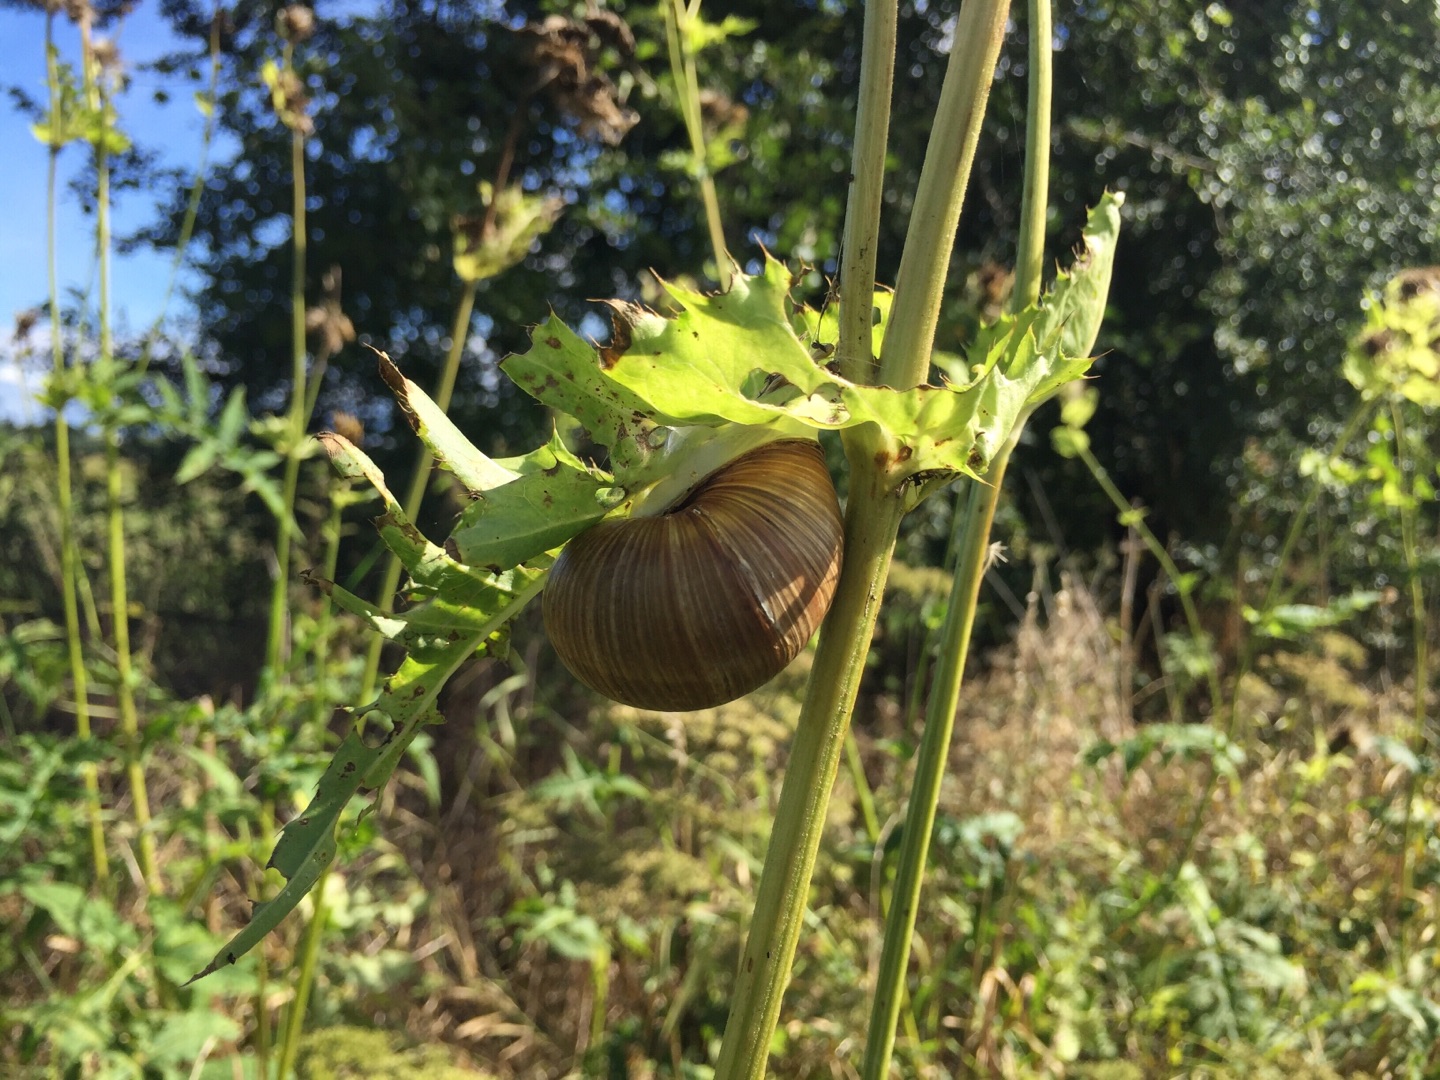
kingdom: Animalia
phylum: Mollusca
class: Gastropoda
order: Stylommatophora
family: Helicidae
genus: Helix
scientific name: Helix pomatia
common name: Vinbjergsnegl
